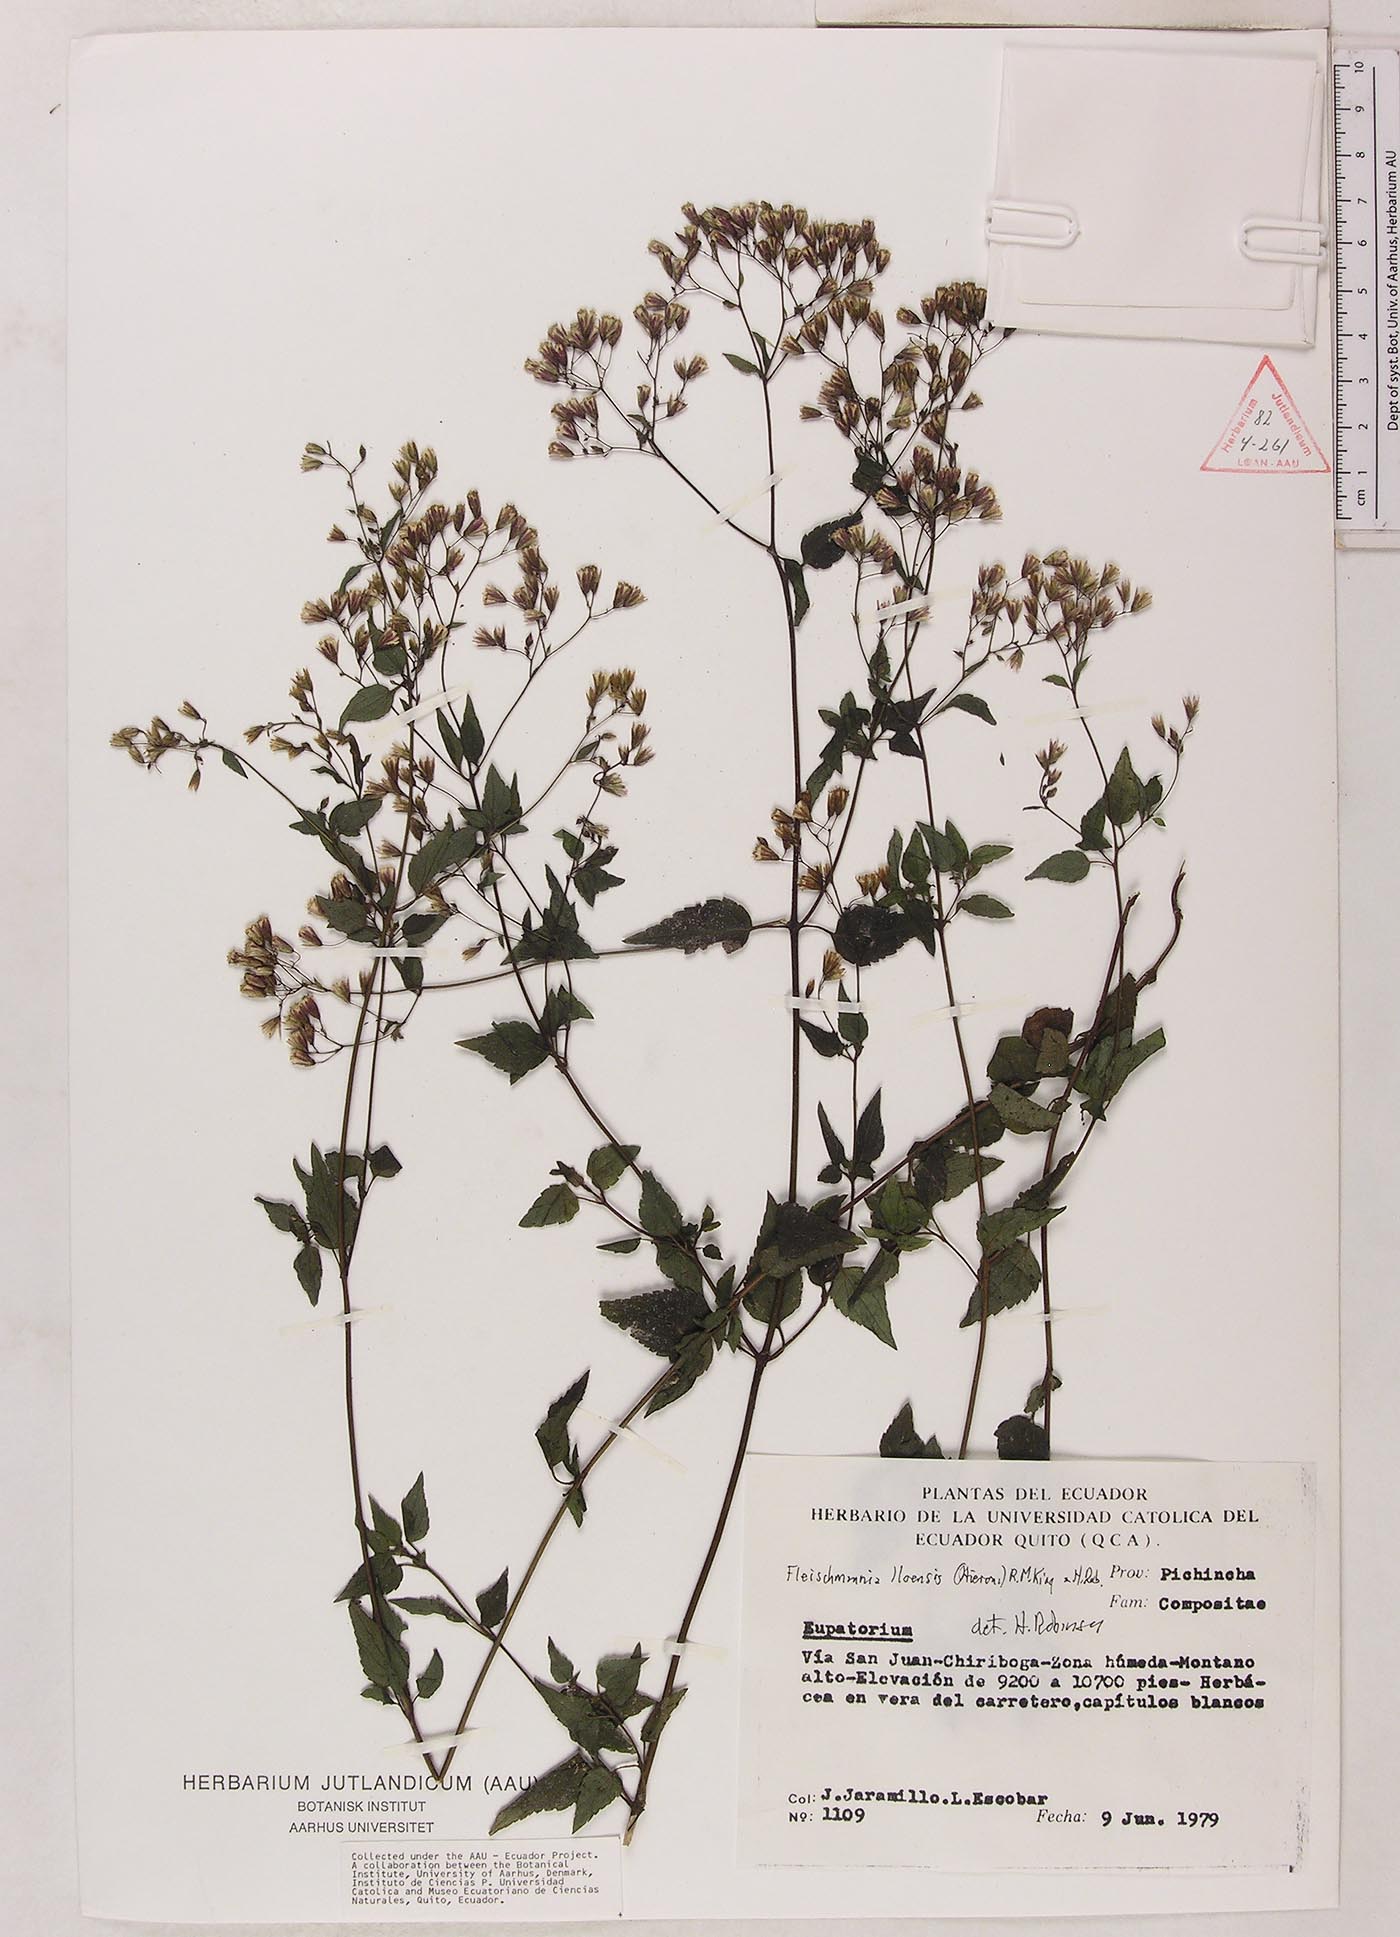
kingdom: Plantae
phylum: Tracheophyta
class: Magnoliopsida
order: Asterales
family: Asteraceae
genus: Fleischmannia
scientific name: Fleischmannia lloensis
